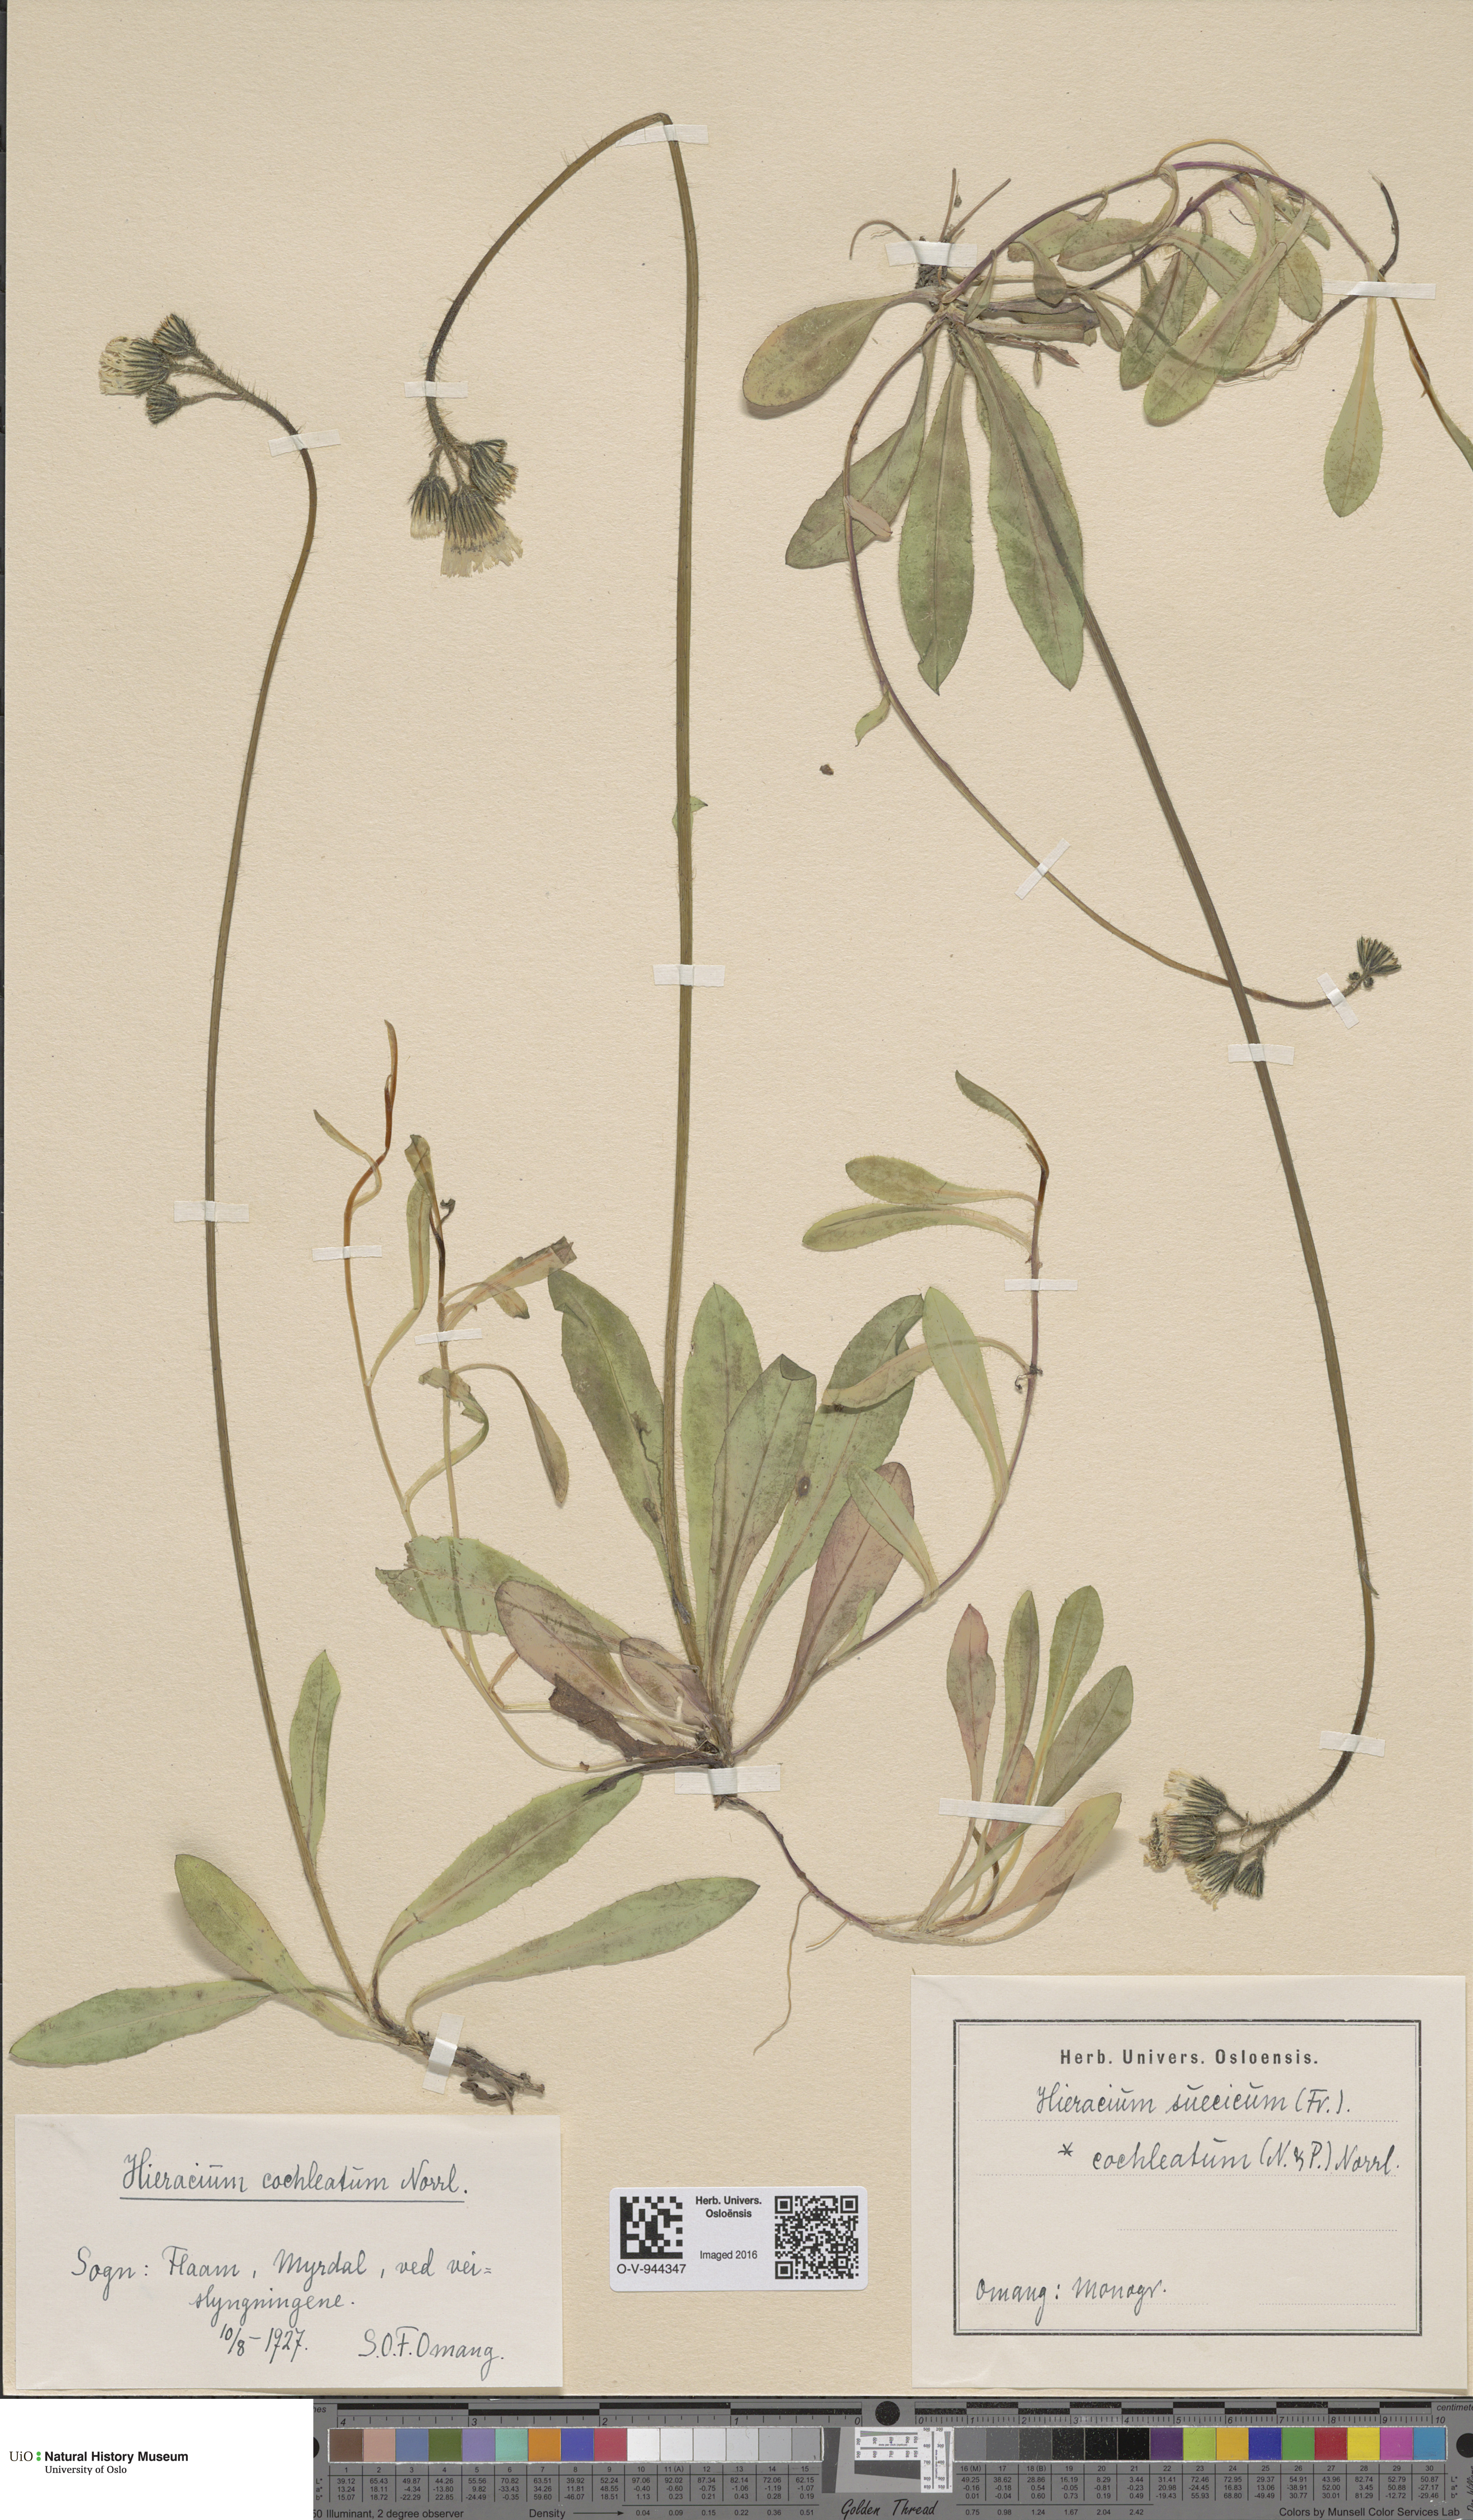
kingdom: Plantae
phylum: Tracheophyta
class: Magnoliopsida
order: Asterales
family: Asteraceae
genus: Pilosella
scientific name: Pilosella dubia
